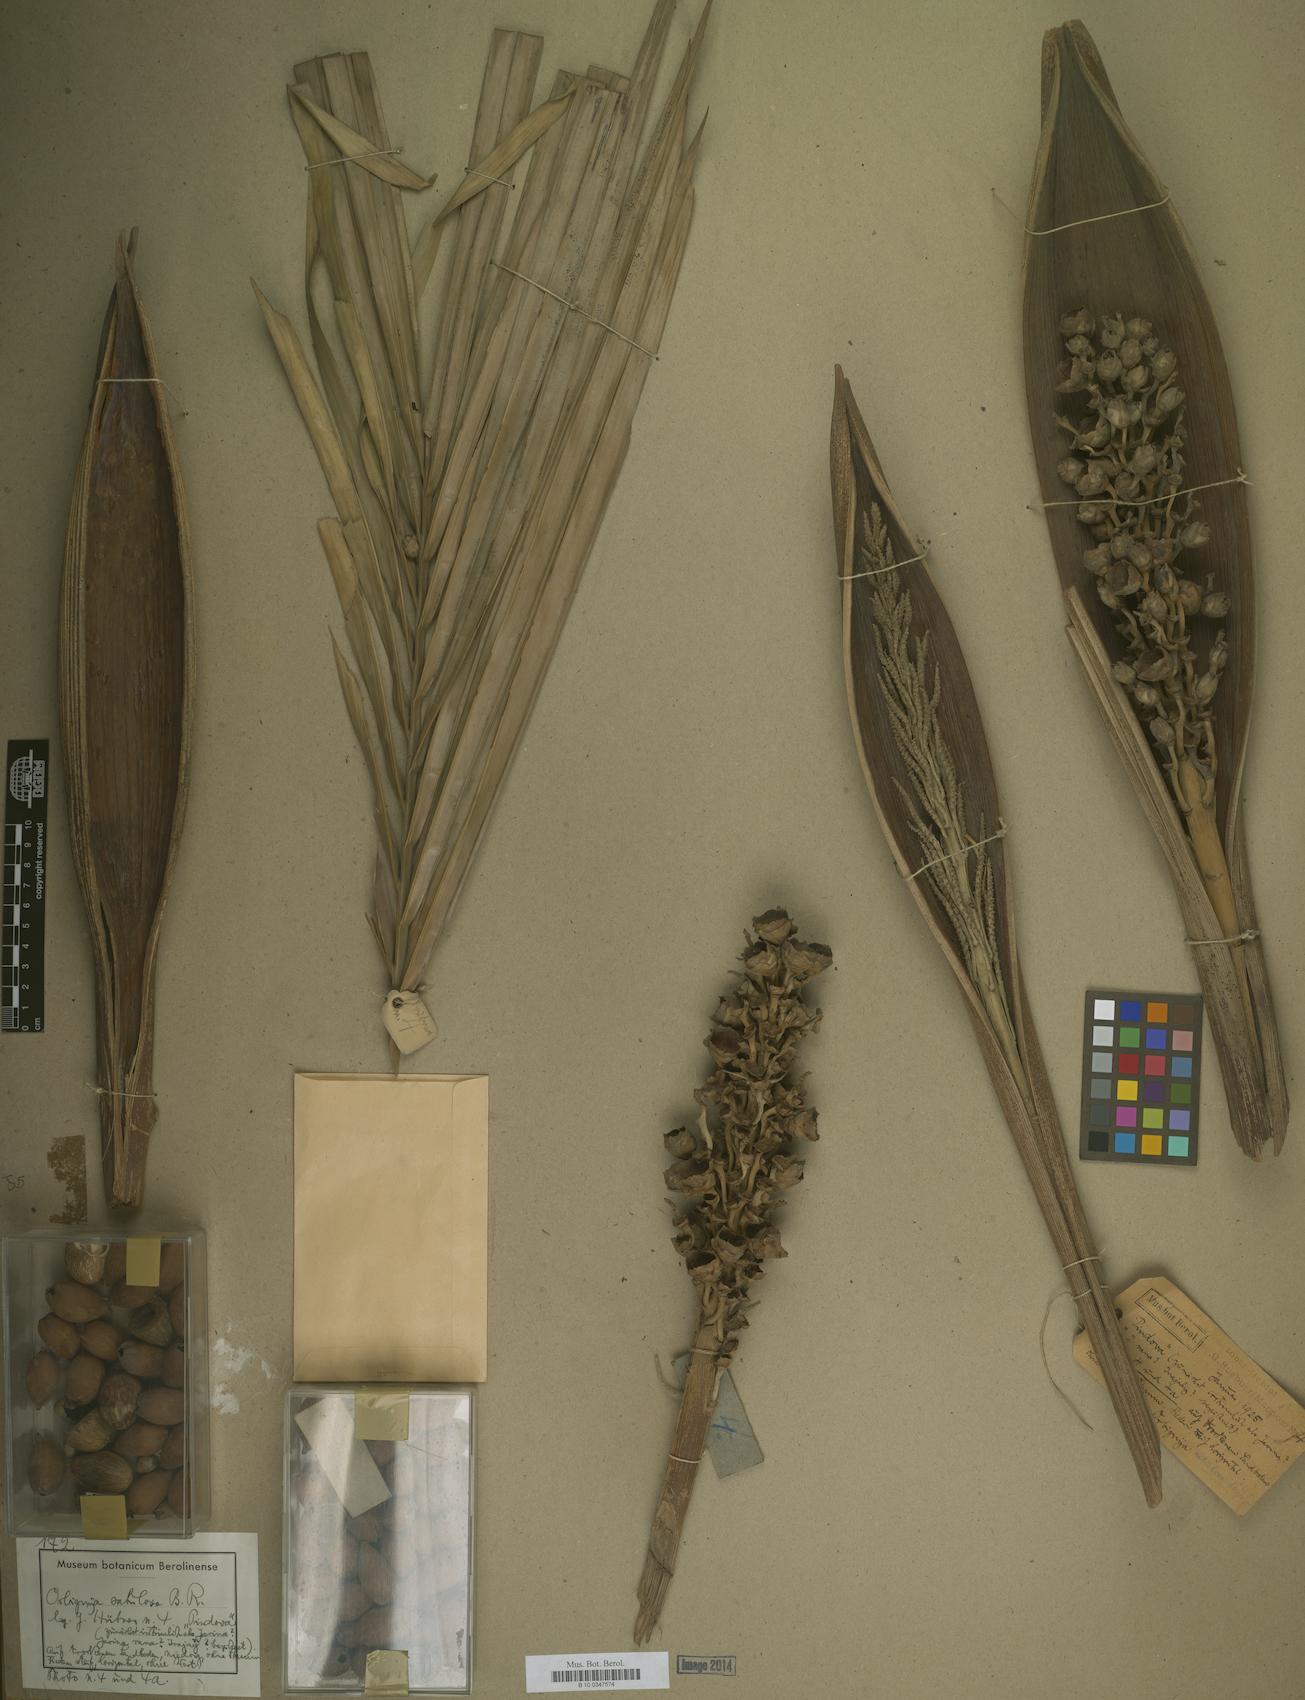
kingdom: Plantae
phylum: Tracheophyta
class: Liliopsida
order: Arecales
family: Arecaceae
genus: Attalea
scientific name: Attalea microcarpa
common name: Mountain maripa
